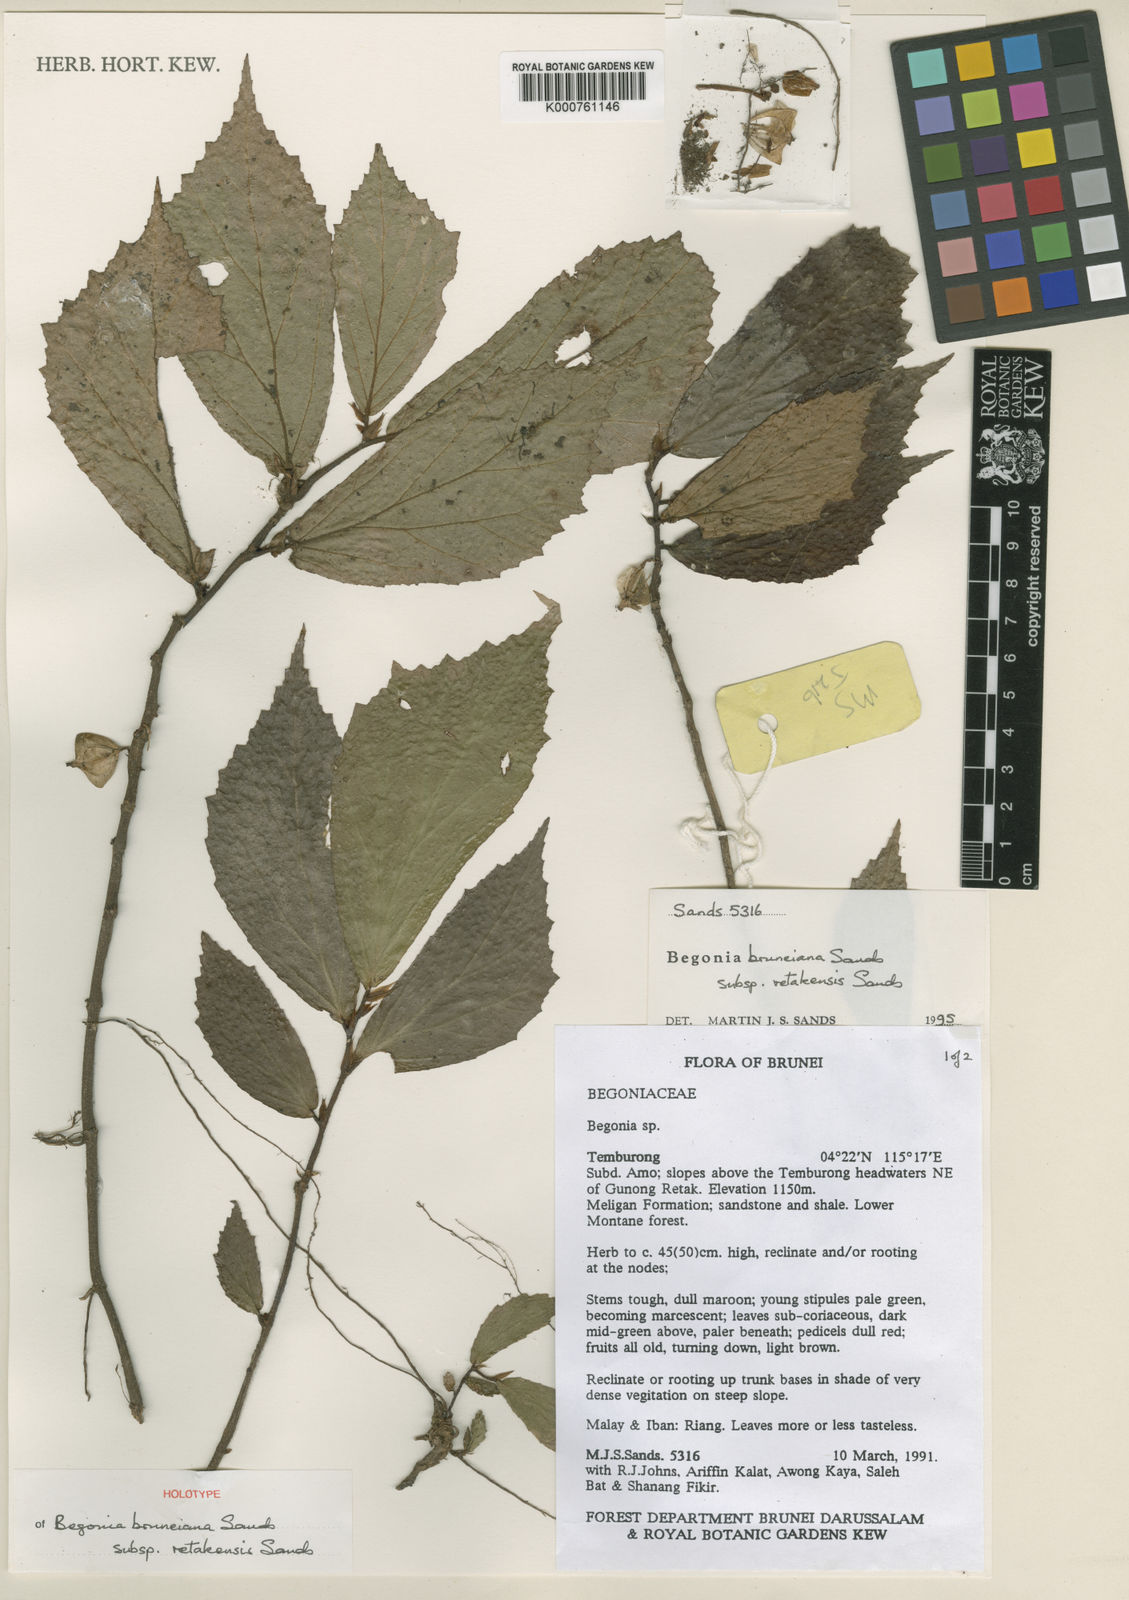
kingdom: Plantae
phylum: Tracheophyta
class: Magnoliopsida
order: Cucurbitales
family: Begoniaceae
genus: Begonia
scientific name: Begonia retakensis
